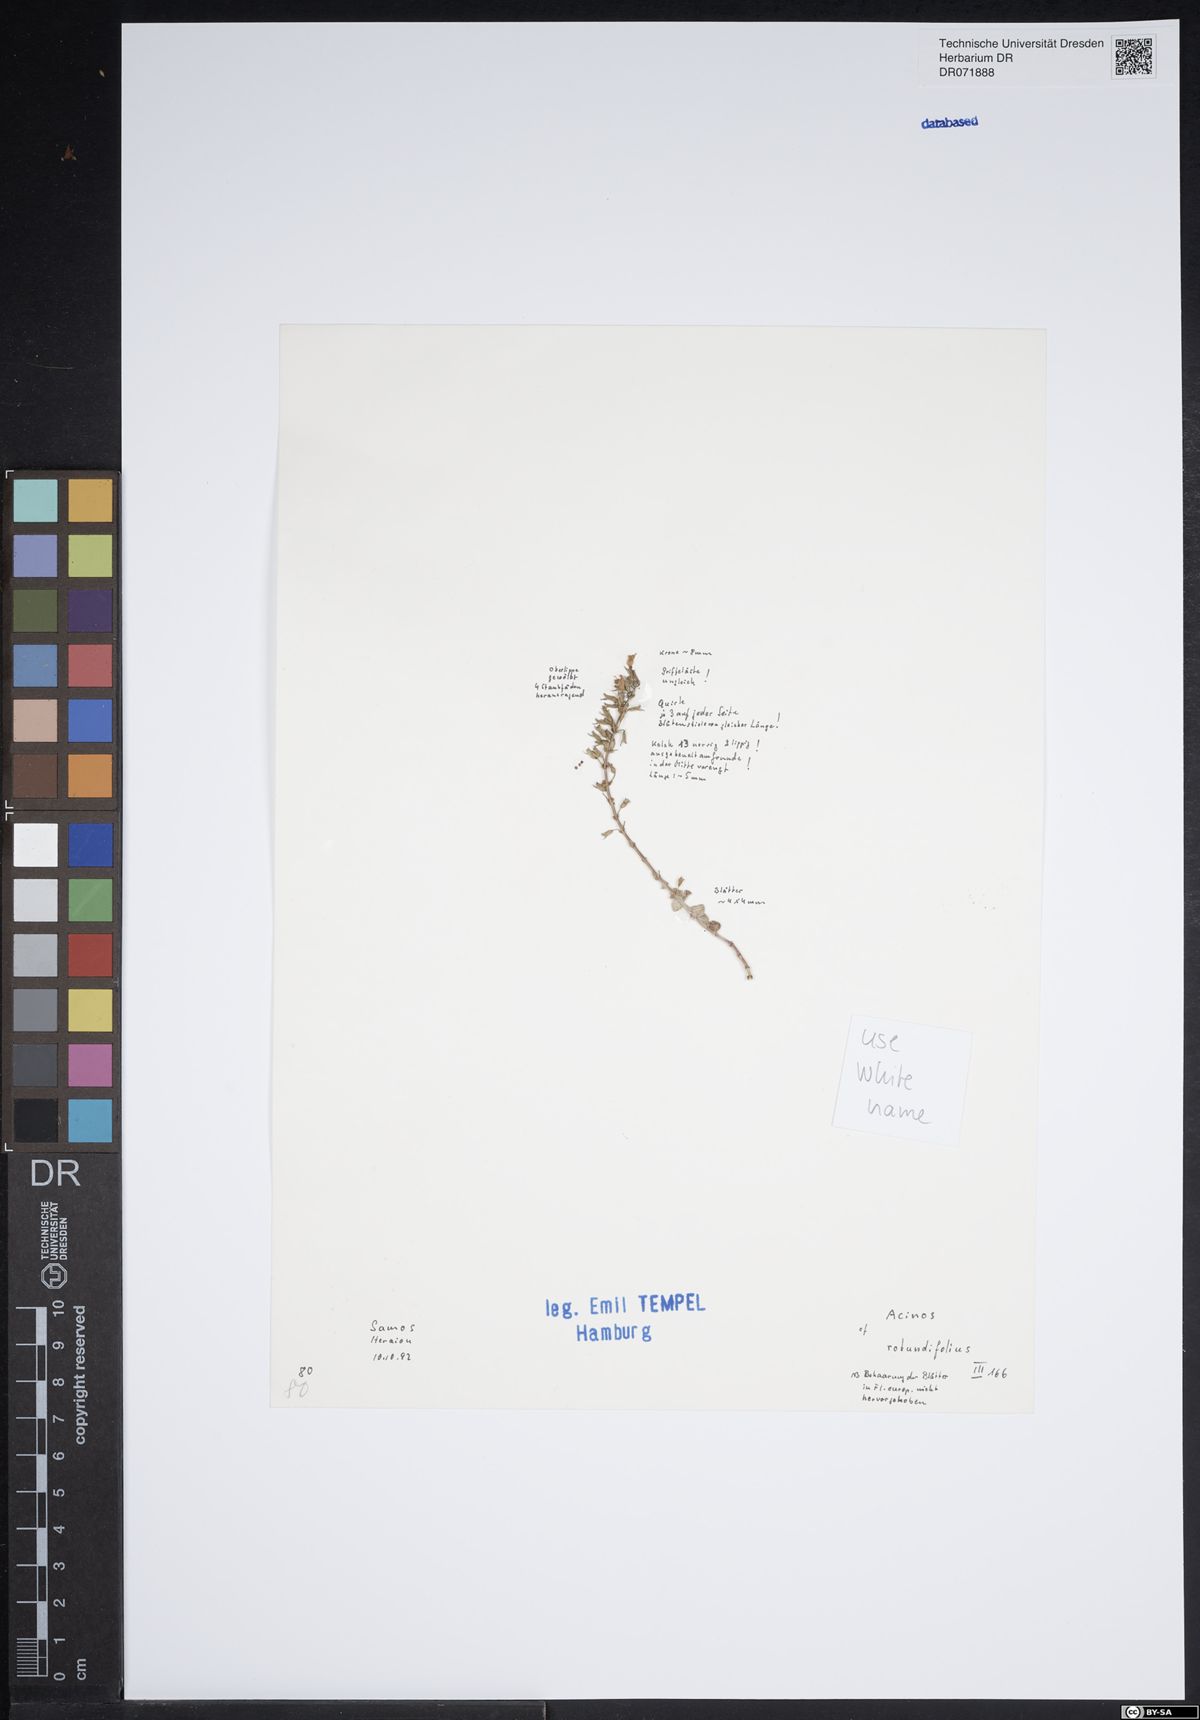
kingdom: Plantae
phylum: Tracheophyta
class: Magnoliopsida
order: Lamiales
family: Lamiaceae
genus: Clinopodium
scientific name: Clinopodium graveolens
